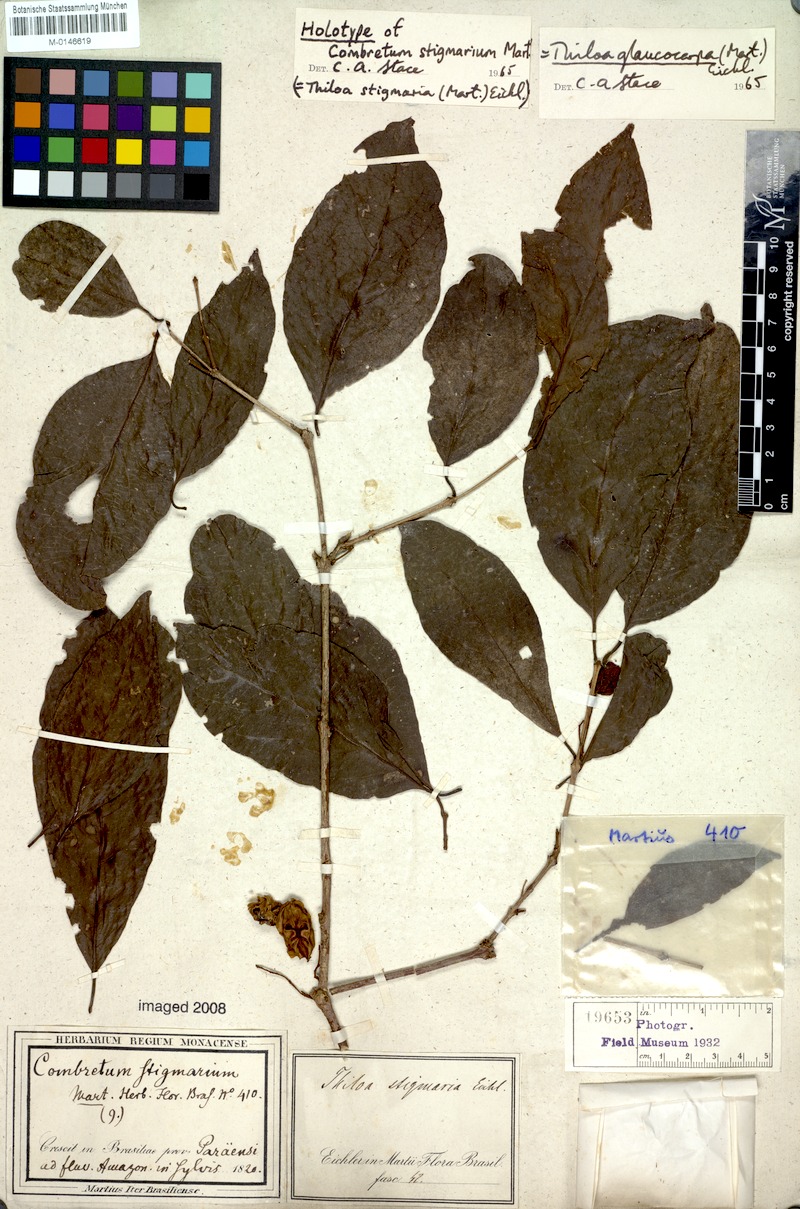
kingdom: Plantae
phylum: Tracheophyta
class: Magnoliopsida
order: Myrtales
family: Combretaceae
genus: Combretum
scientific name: Combretum glaucocarpum
